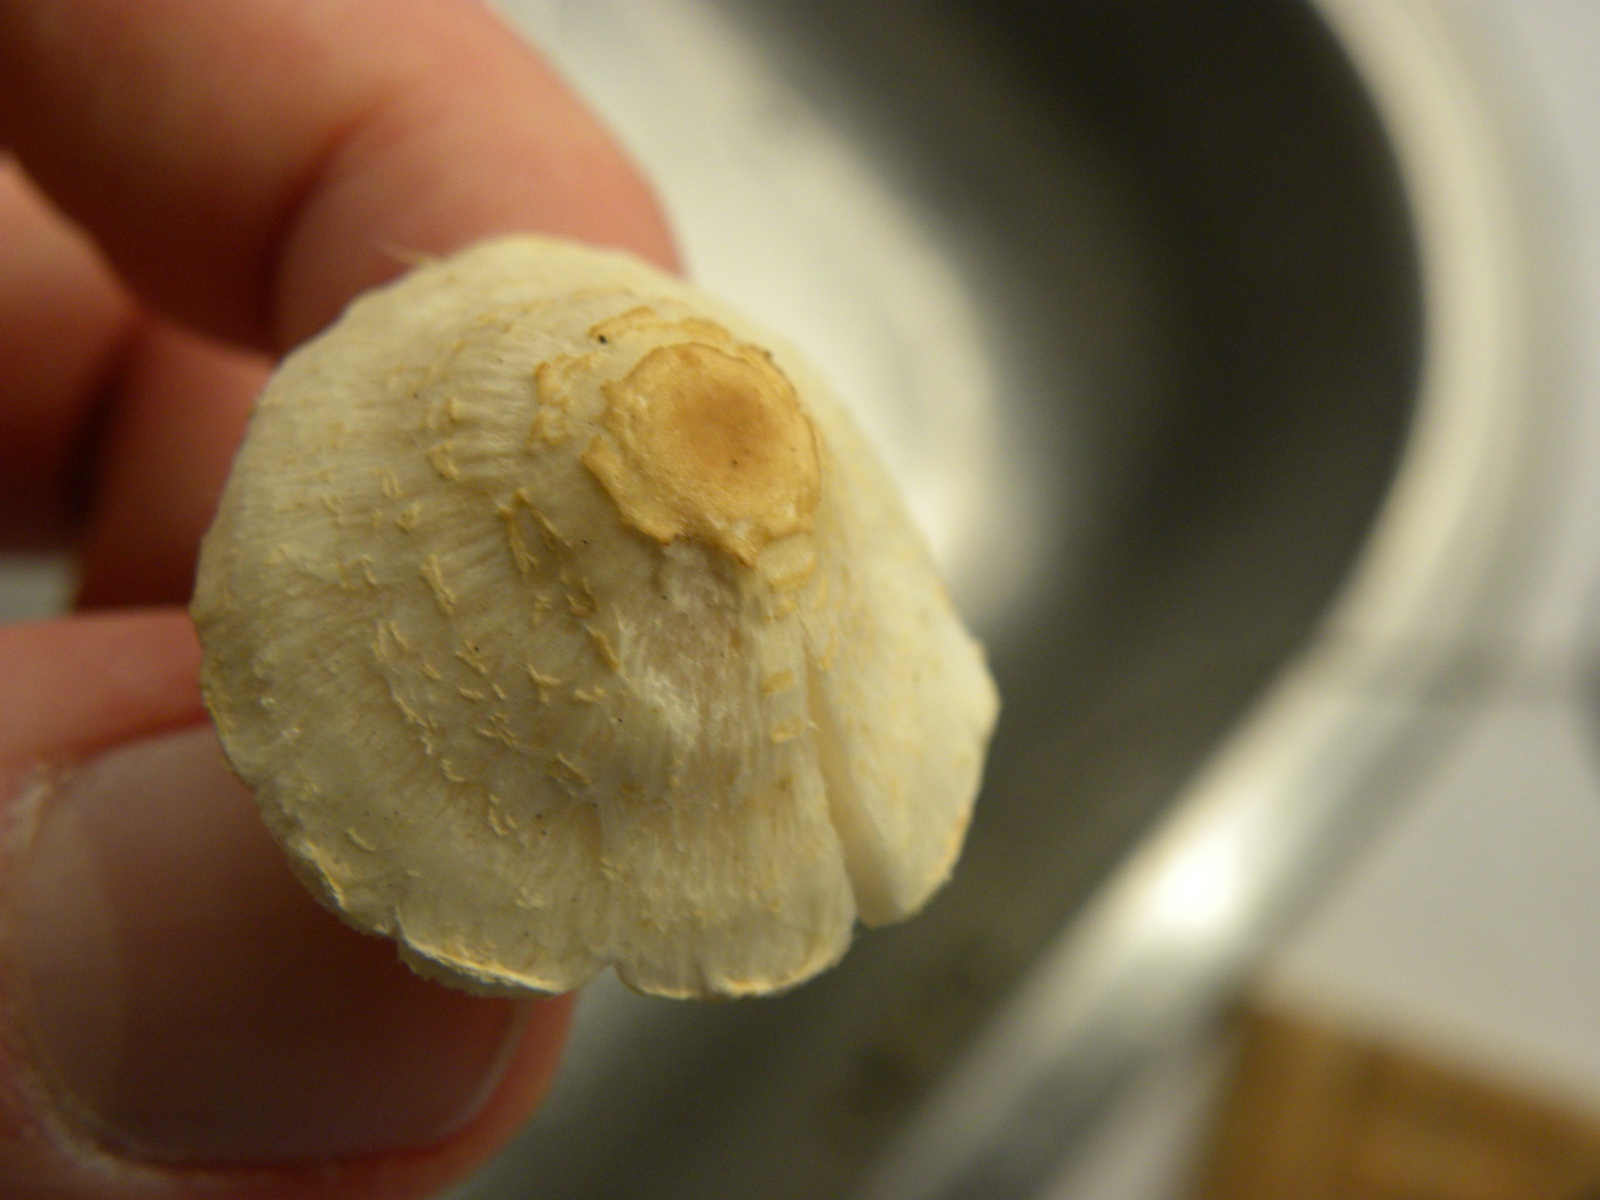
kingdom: Fungi
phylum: Basidiomycota
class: Agaricomycetes
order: Agaricales
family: Agaricaceae
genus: Lepiota
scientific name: Lepiota cristata
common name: stinkende parasolhat
